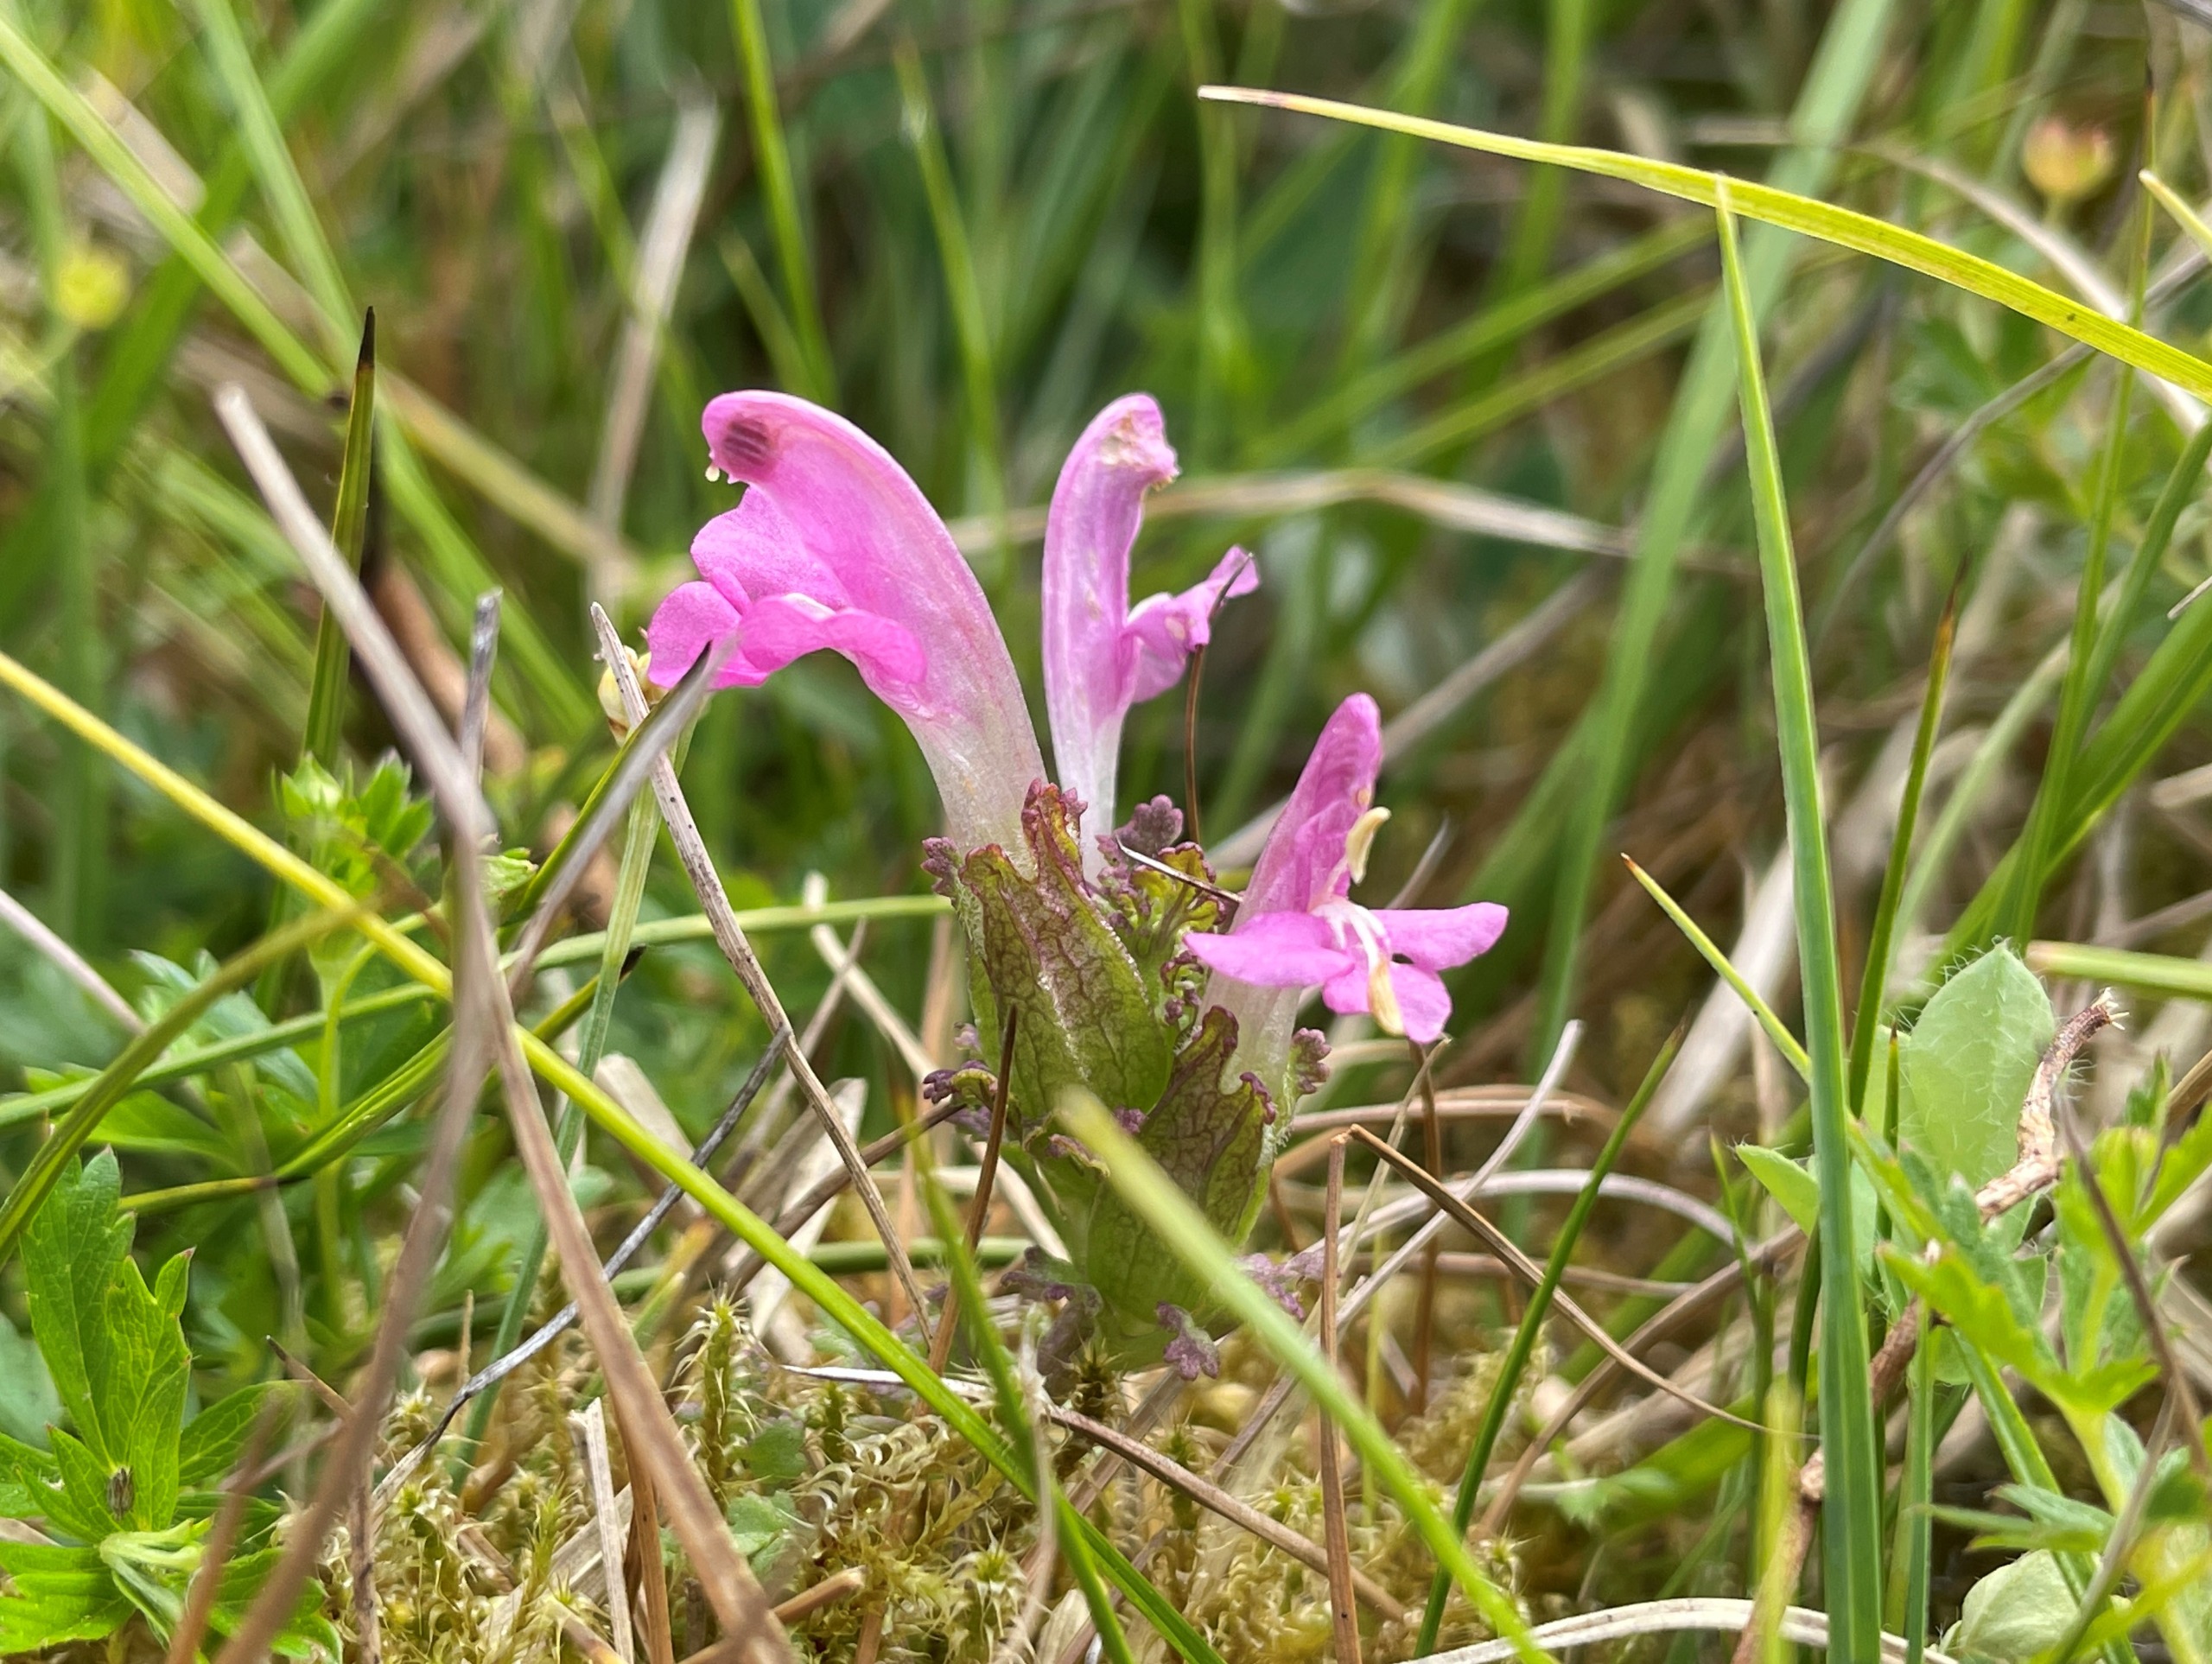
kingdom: Plantae
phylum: Tracheophyta
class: Magnoliopsida
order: Lamiales
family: Orobanchaceae
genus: Pedicularis
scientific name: Pedicularis palustris
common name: Eng-troldurt
